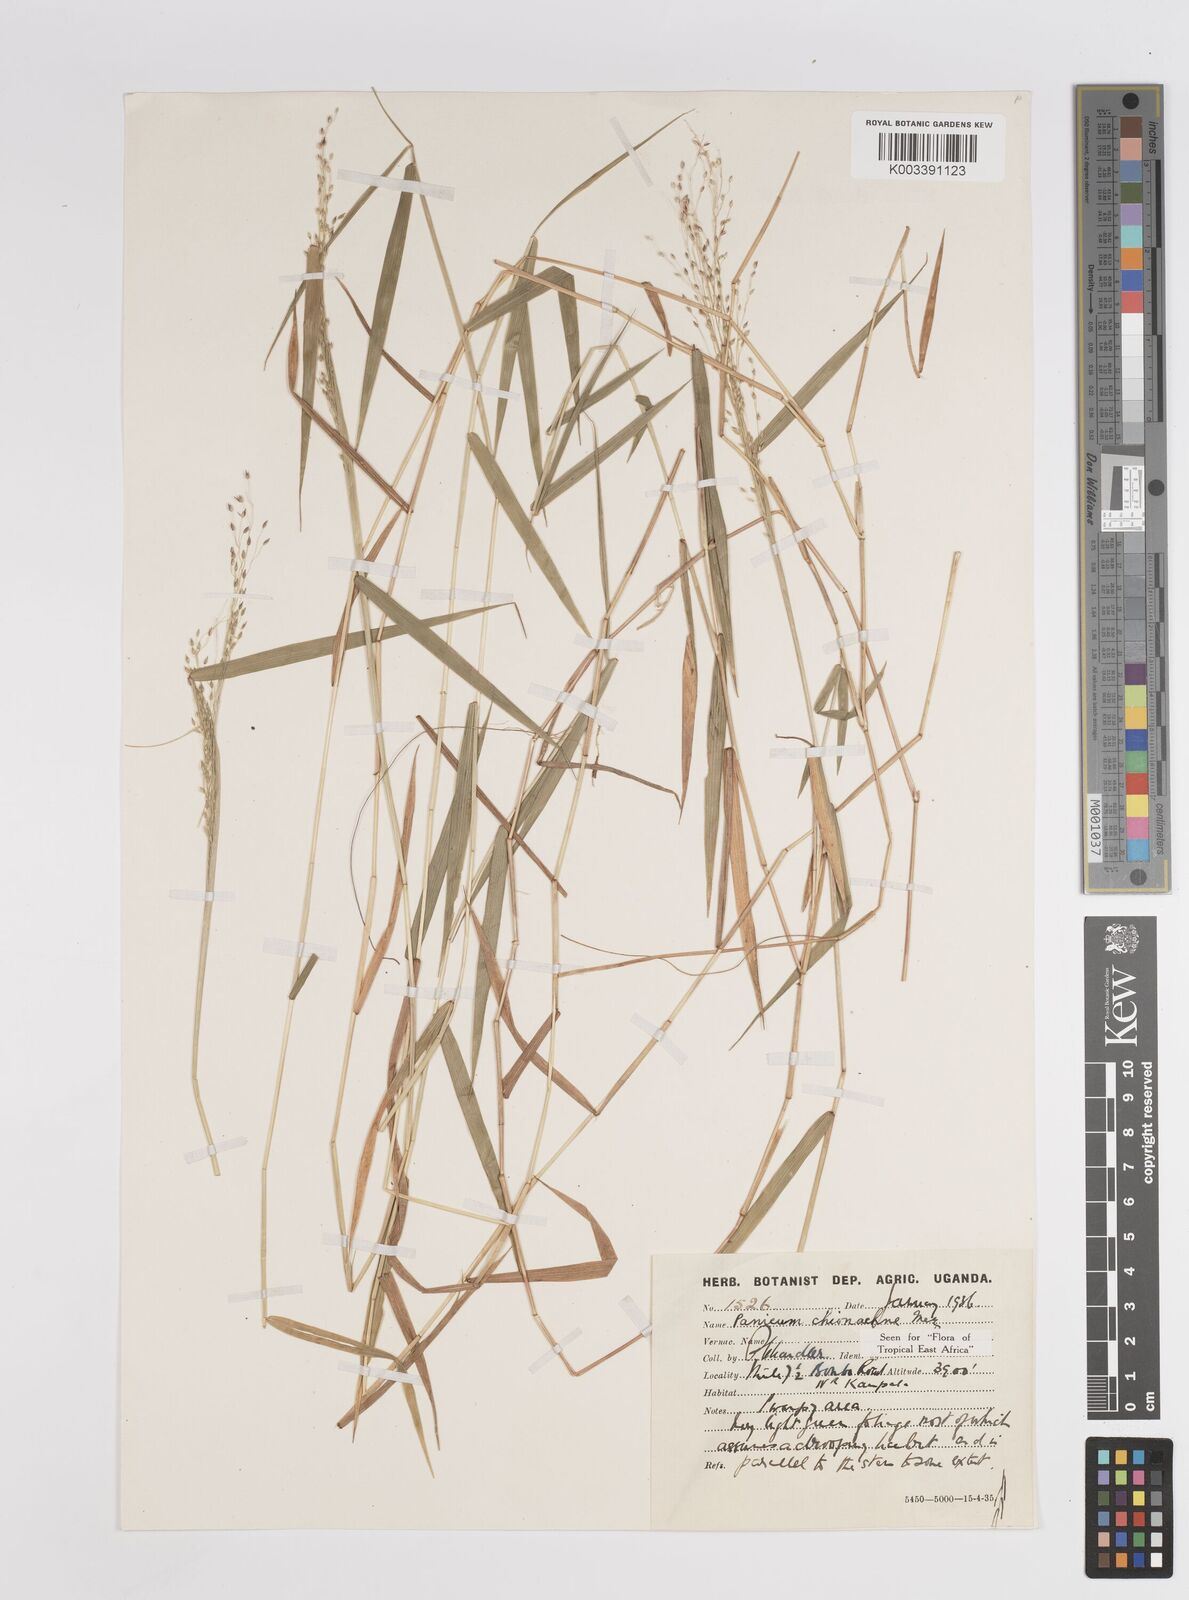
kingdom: Plantae
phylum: Tracheophyta
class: Liliopsida
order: Poales
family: Poaceae
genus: Panicum
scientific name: Panicum chionachne
